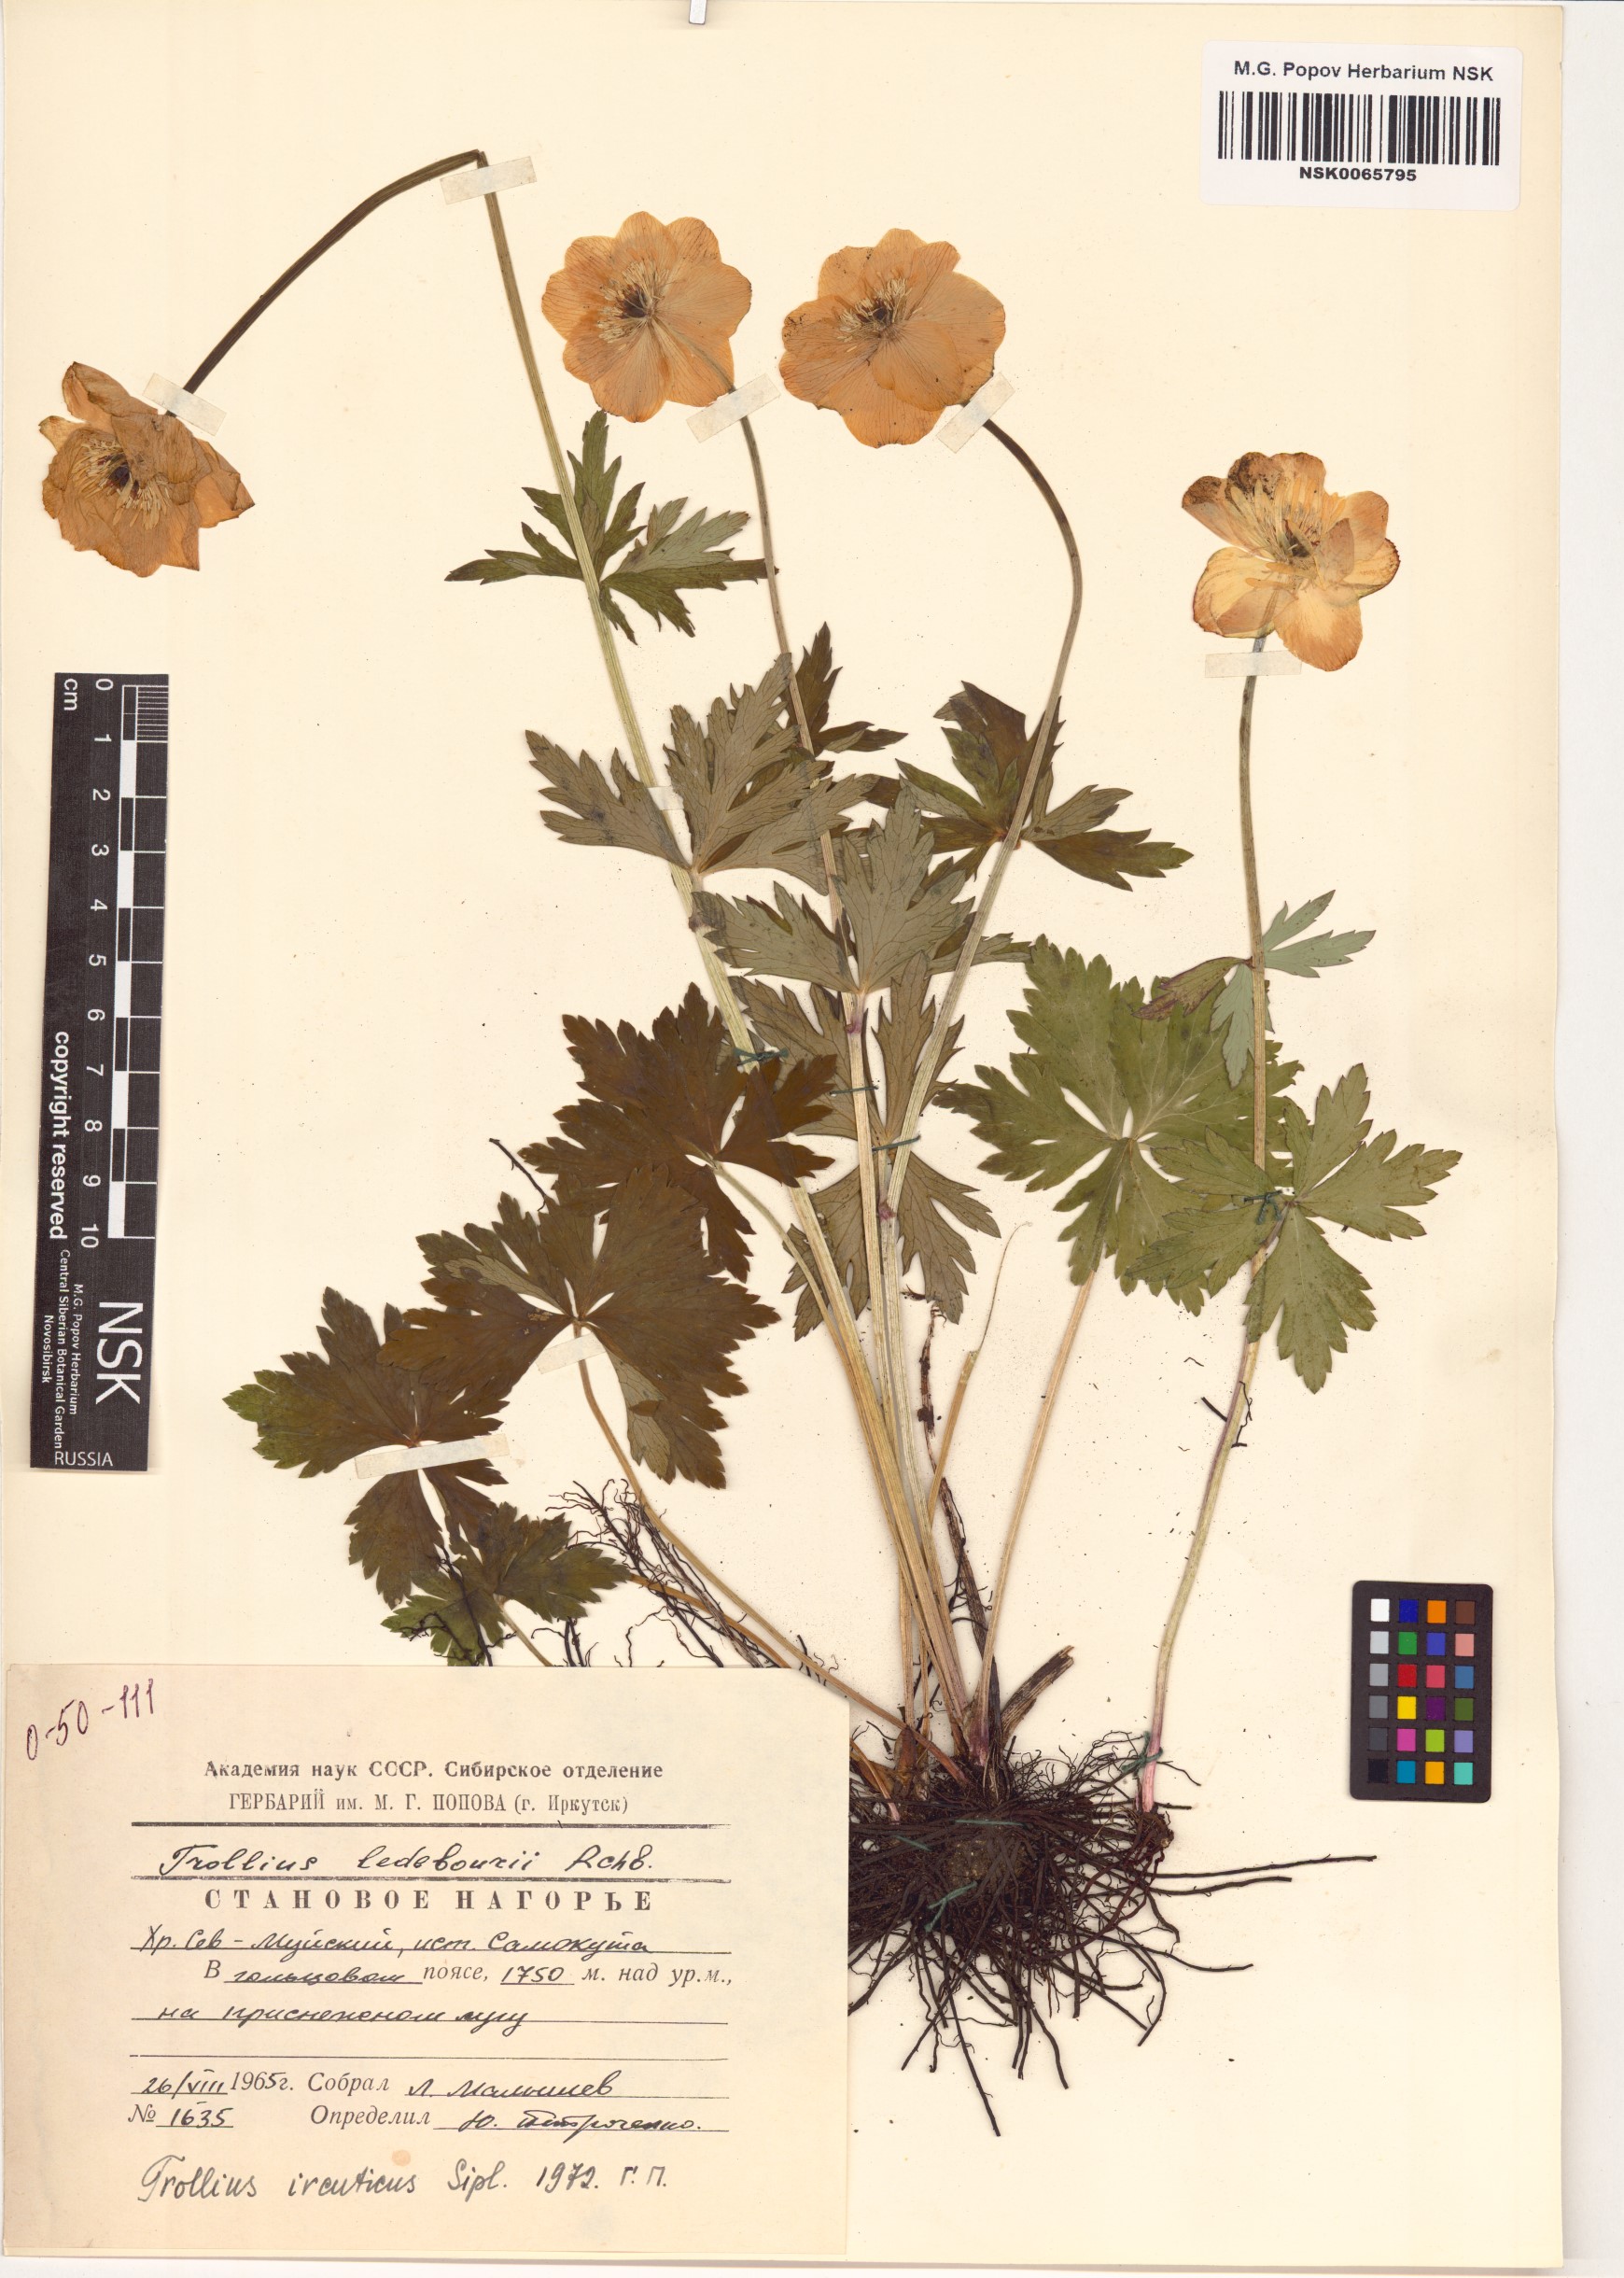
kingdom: Plantae
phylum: Tracheophyta
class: Magnoliopsida
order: Ranunculales
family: Ranunculaceae
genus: Trollius
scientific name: Trollius kytmanovii
